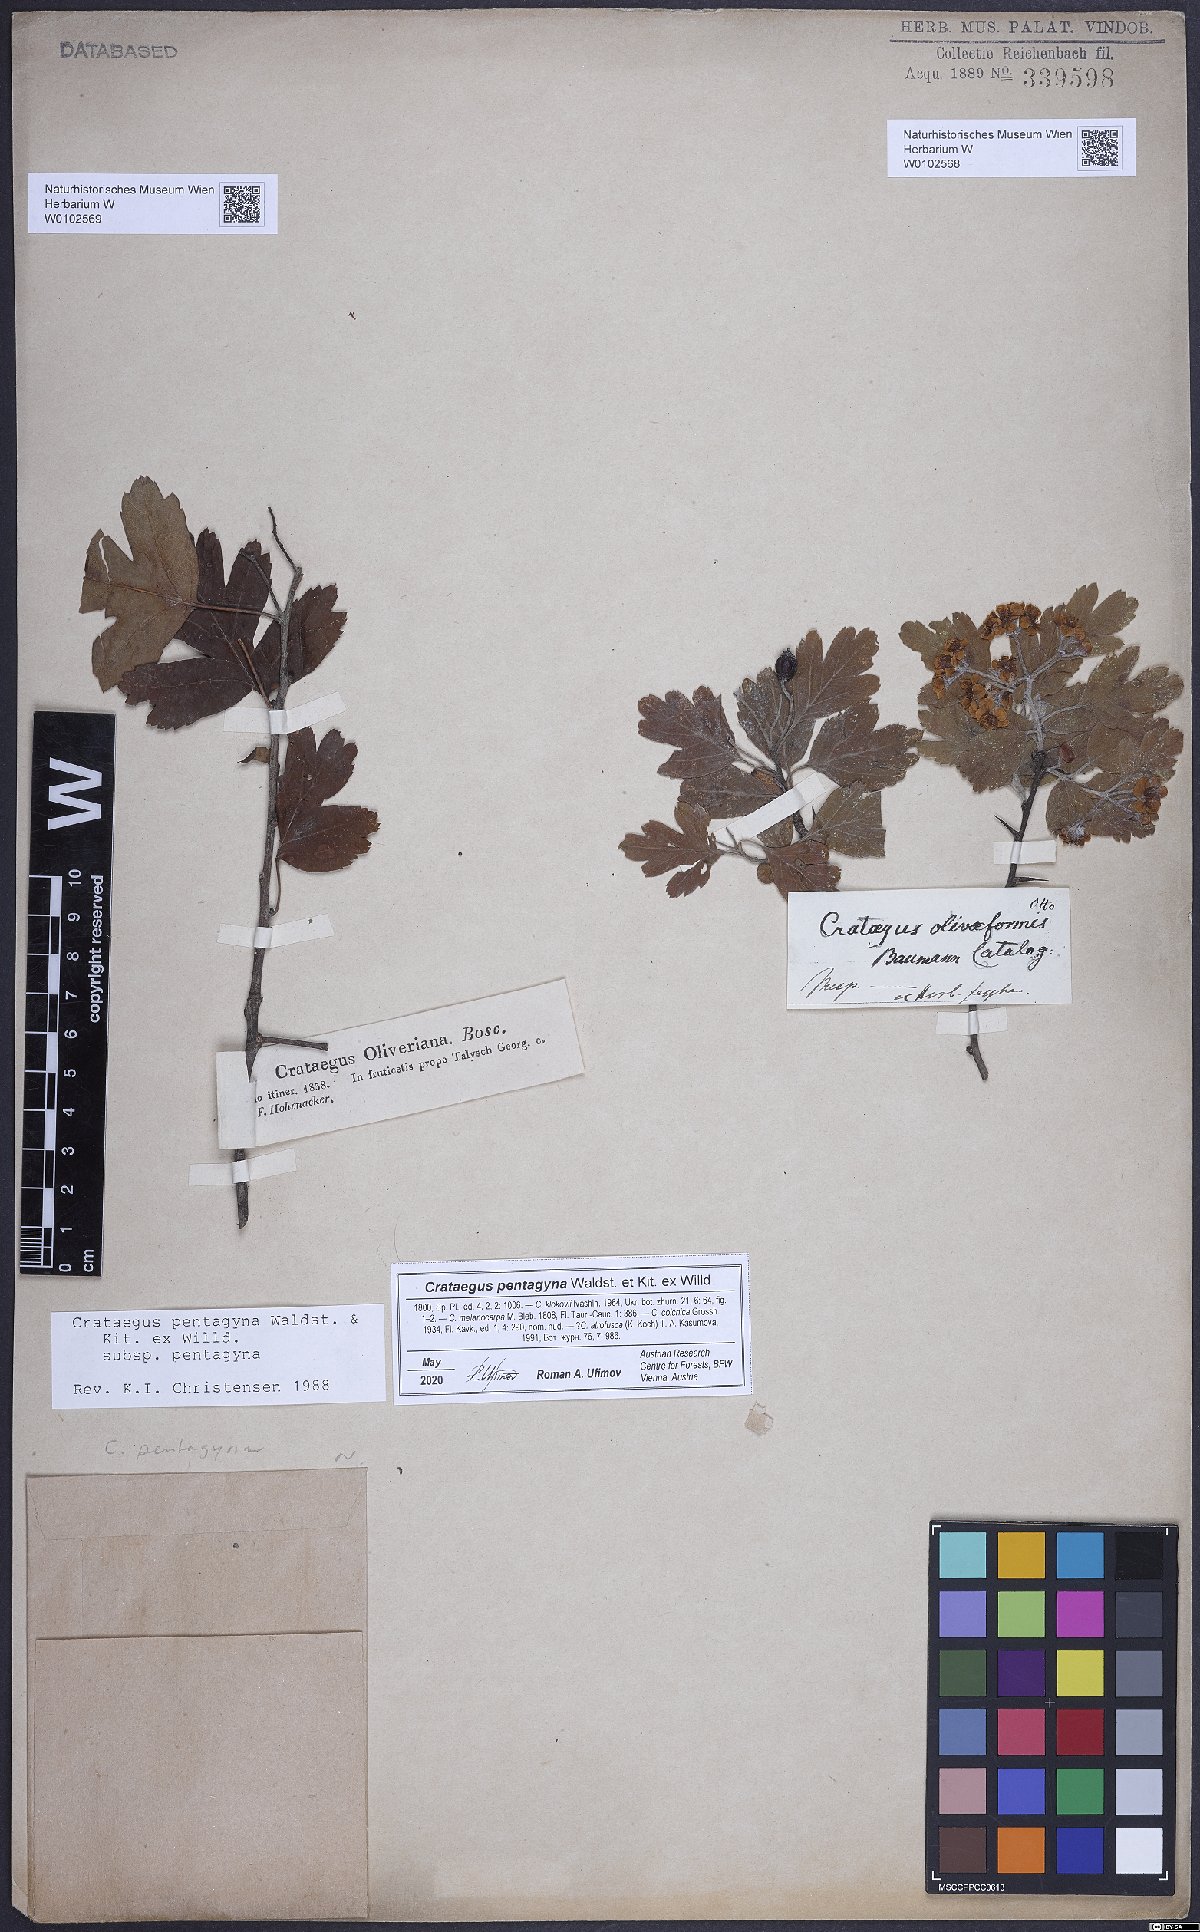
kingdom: Plantae
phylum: Tracheophyta
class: Magnoliopsida
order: Rosales
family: Rosaceae
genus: Crataegus
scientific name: Crataegus pentagyna
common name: Small-flowered black hawthorn
